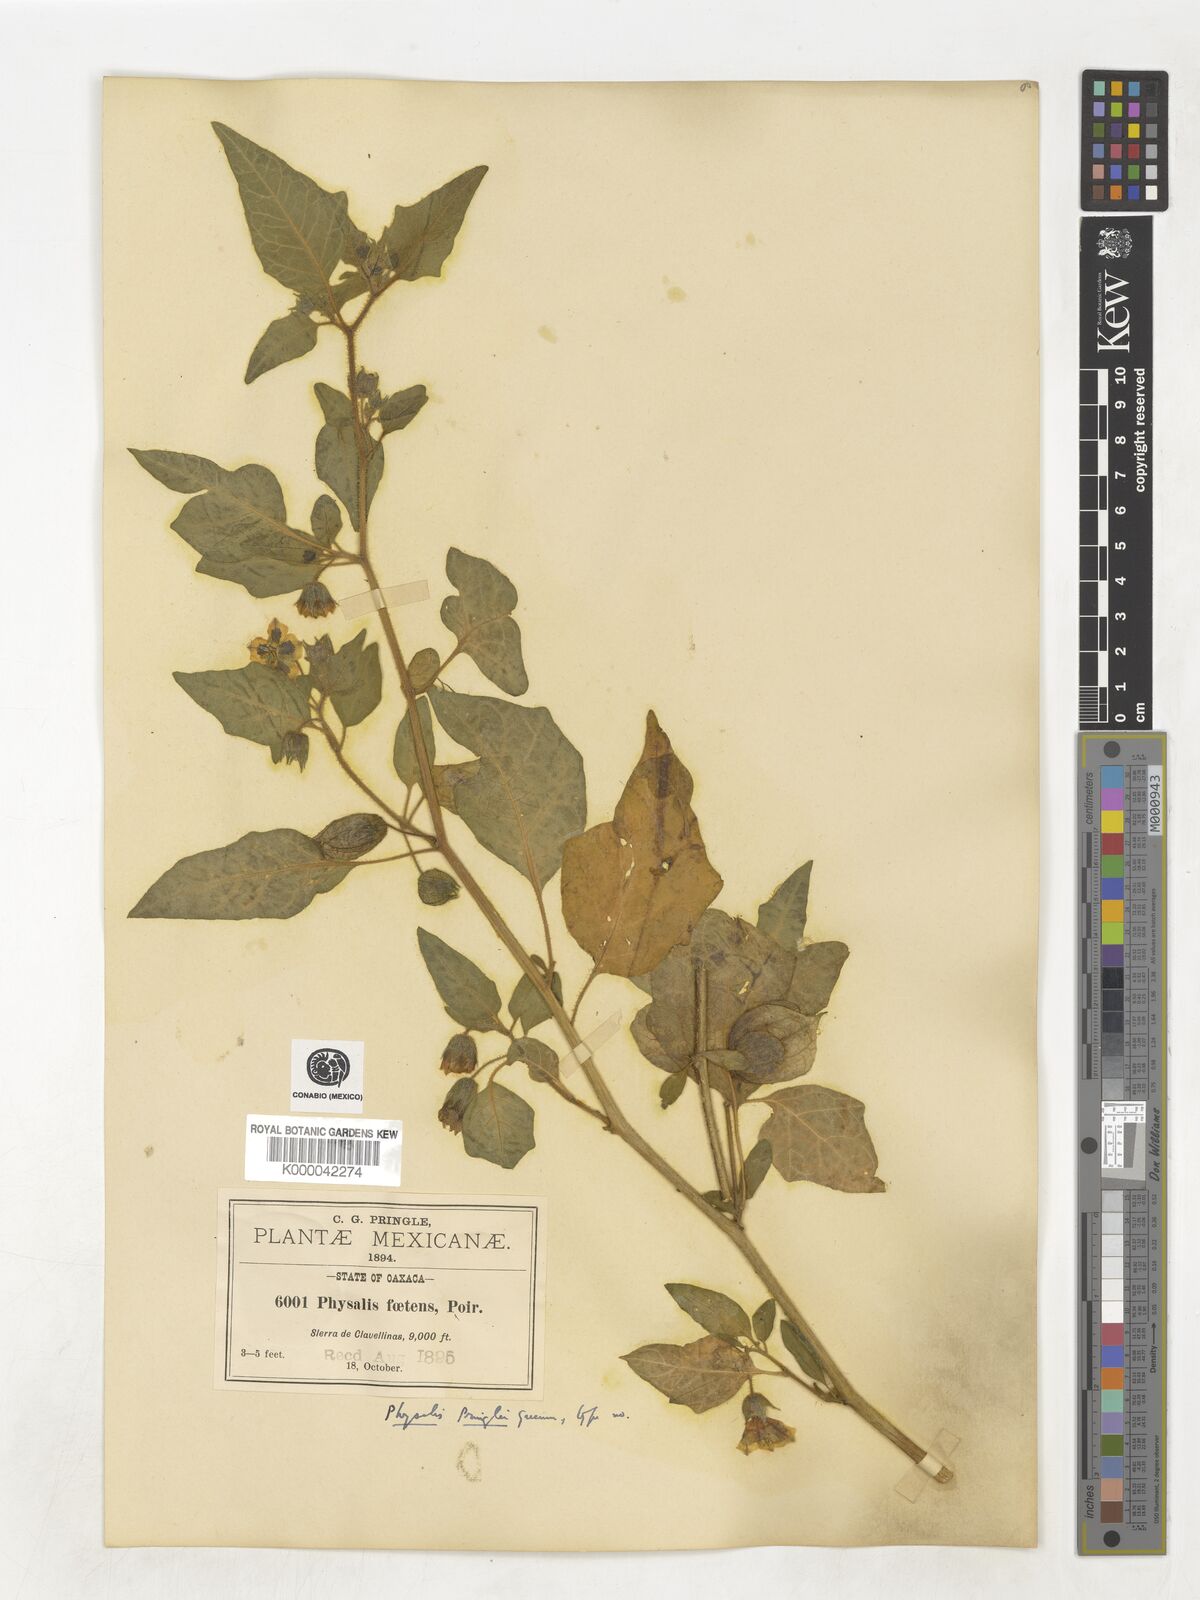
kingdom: Plantae
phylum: Tracheophyta
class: Magnoliopsida
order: Solanales
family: Solanaceae
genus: Physalis
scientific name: Physalis pringlei
